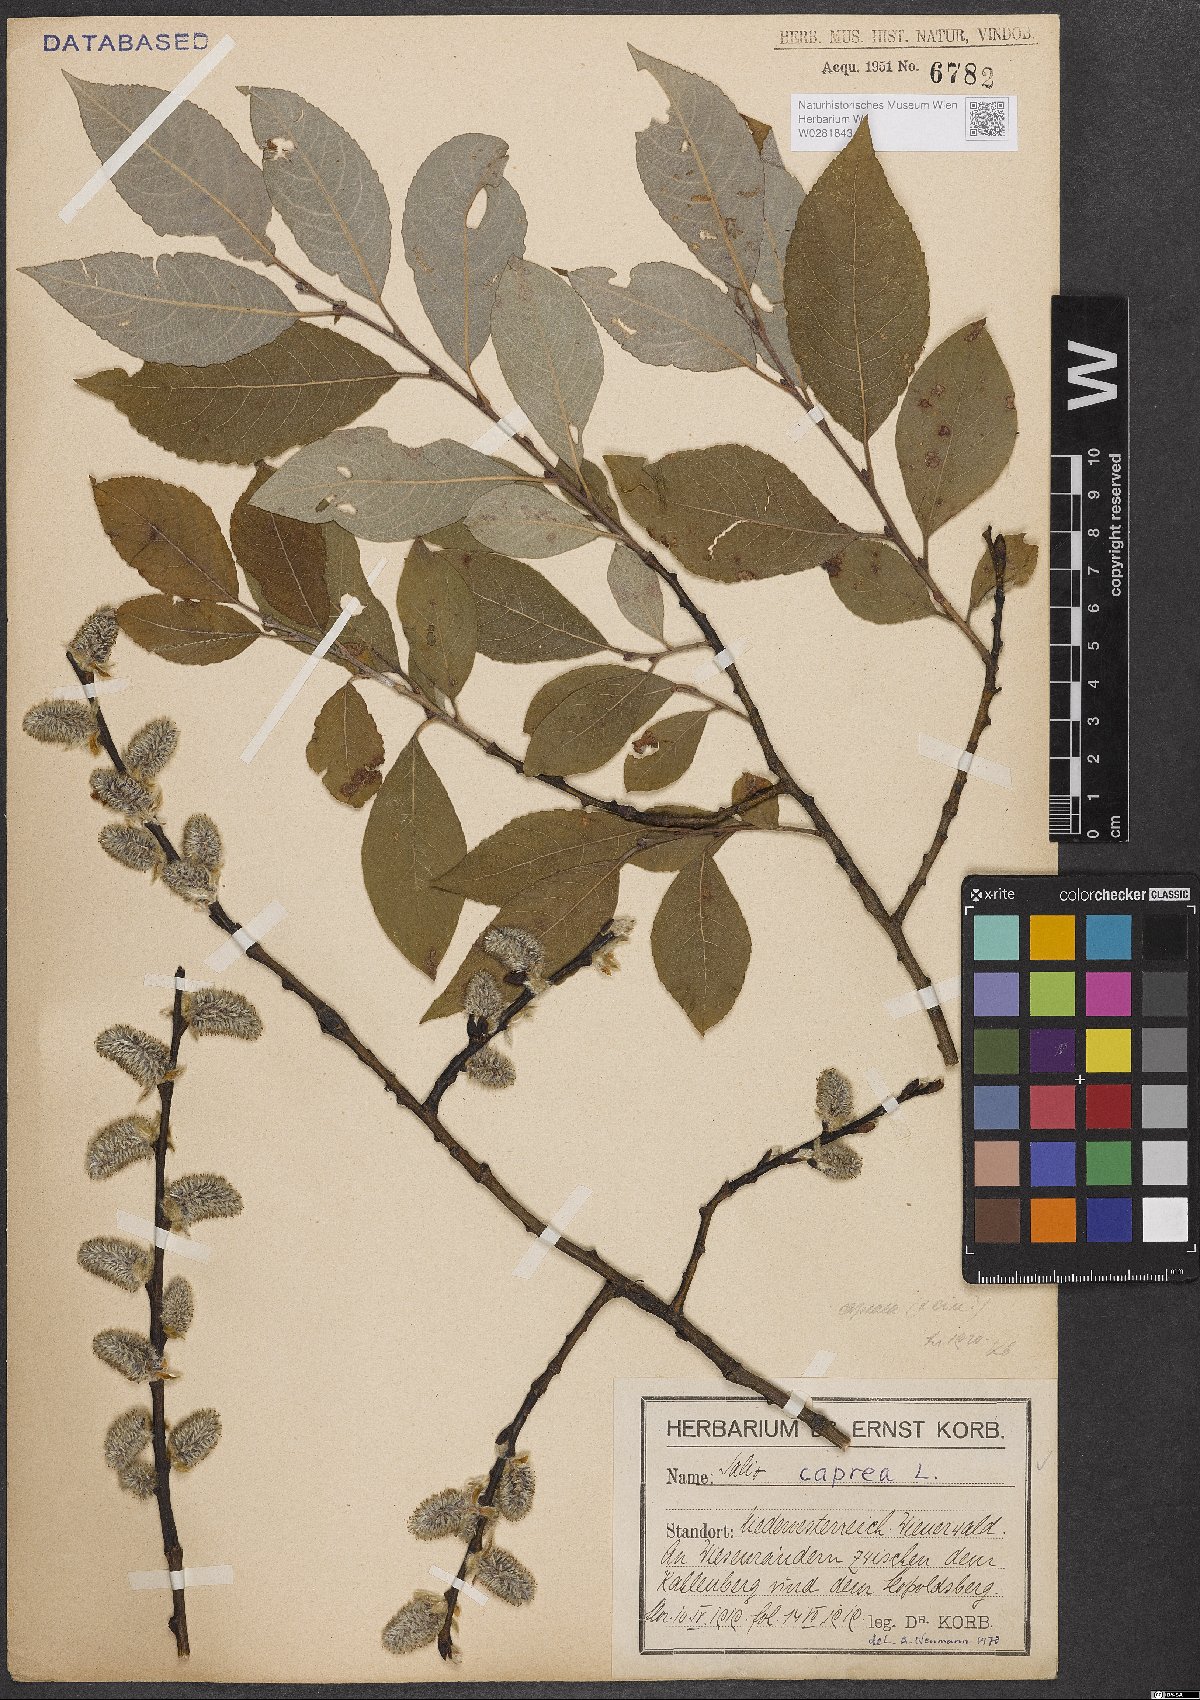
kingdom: Plantae
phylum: Tracheophyta
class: Magnoliopsida
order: Malpighiales
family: Salicaceae
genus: Salix
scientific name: Salix caprea
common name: Goat willow
